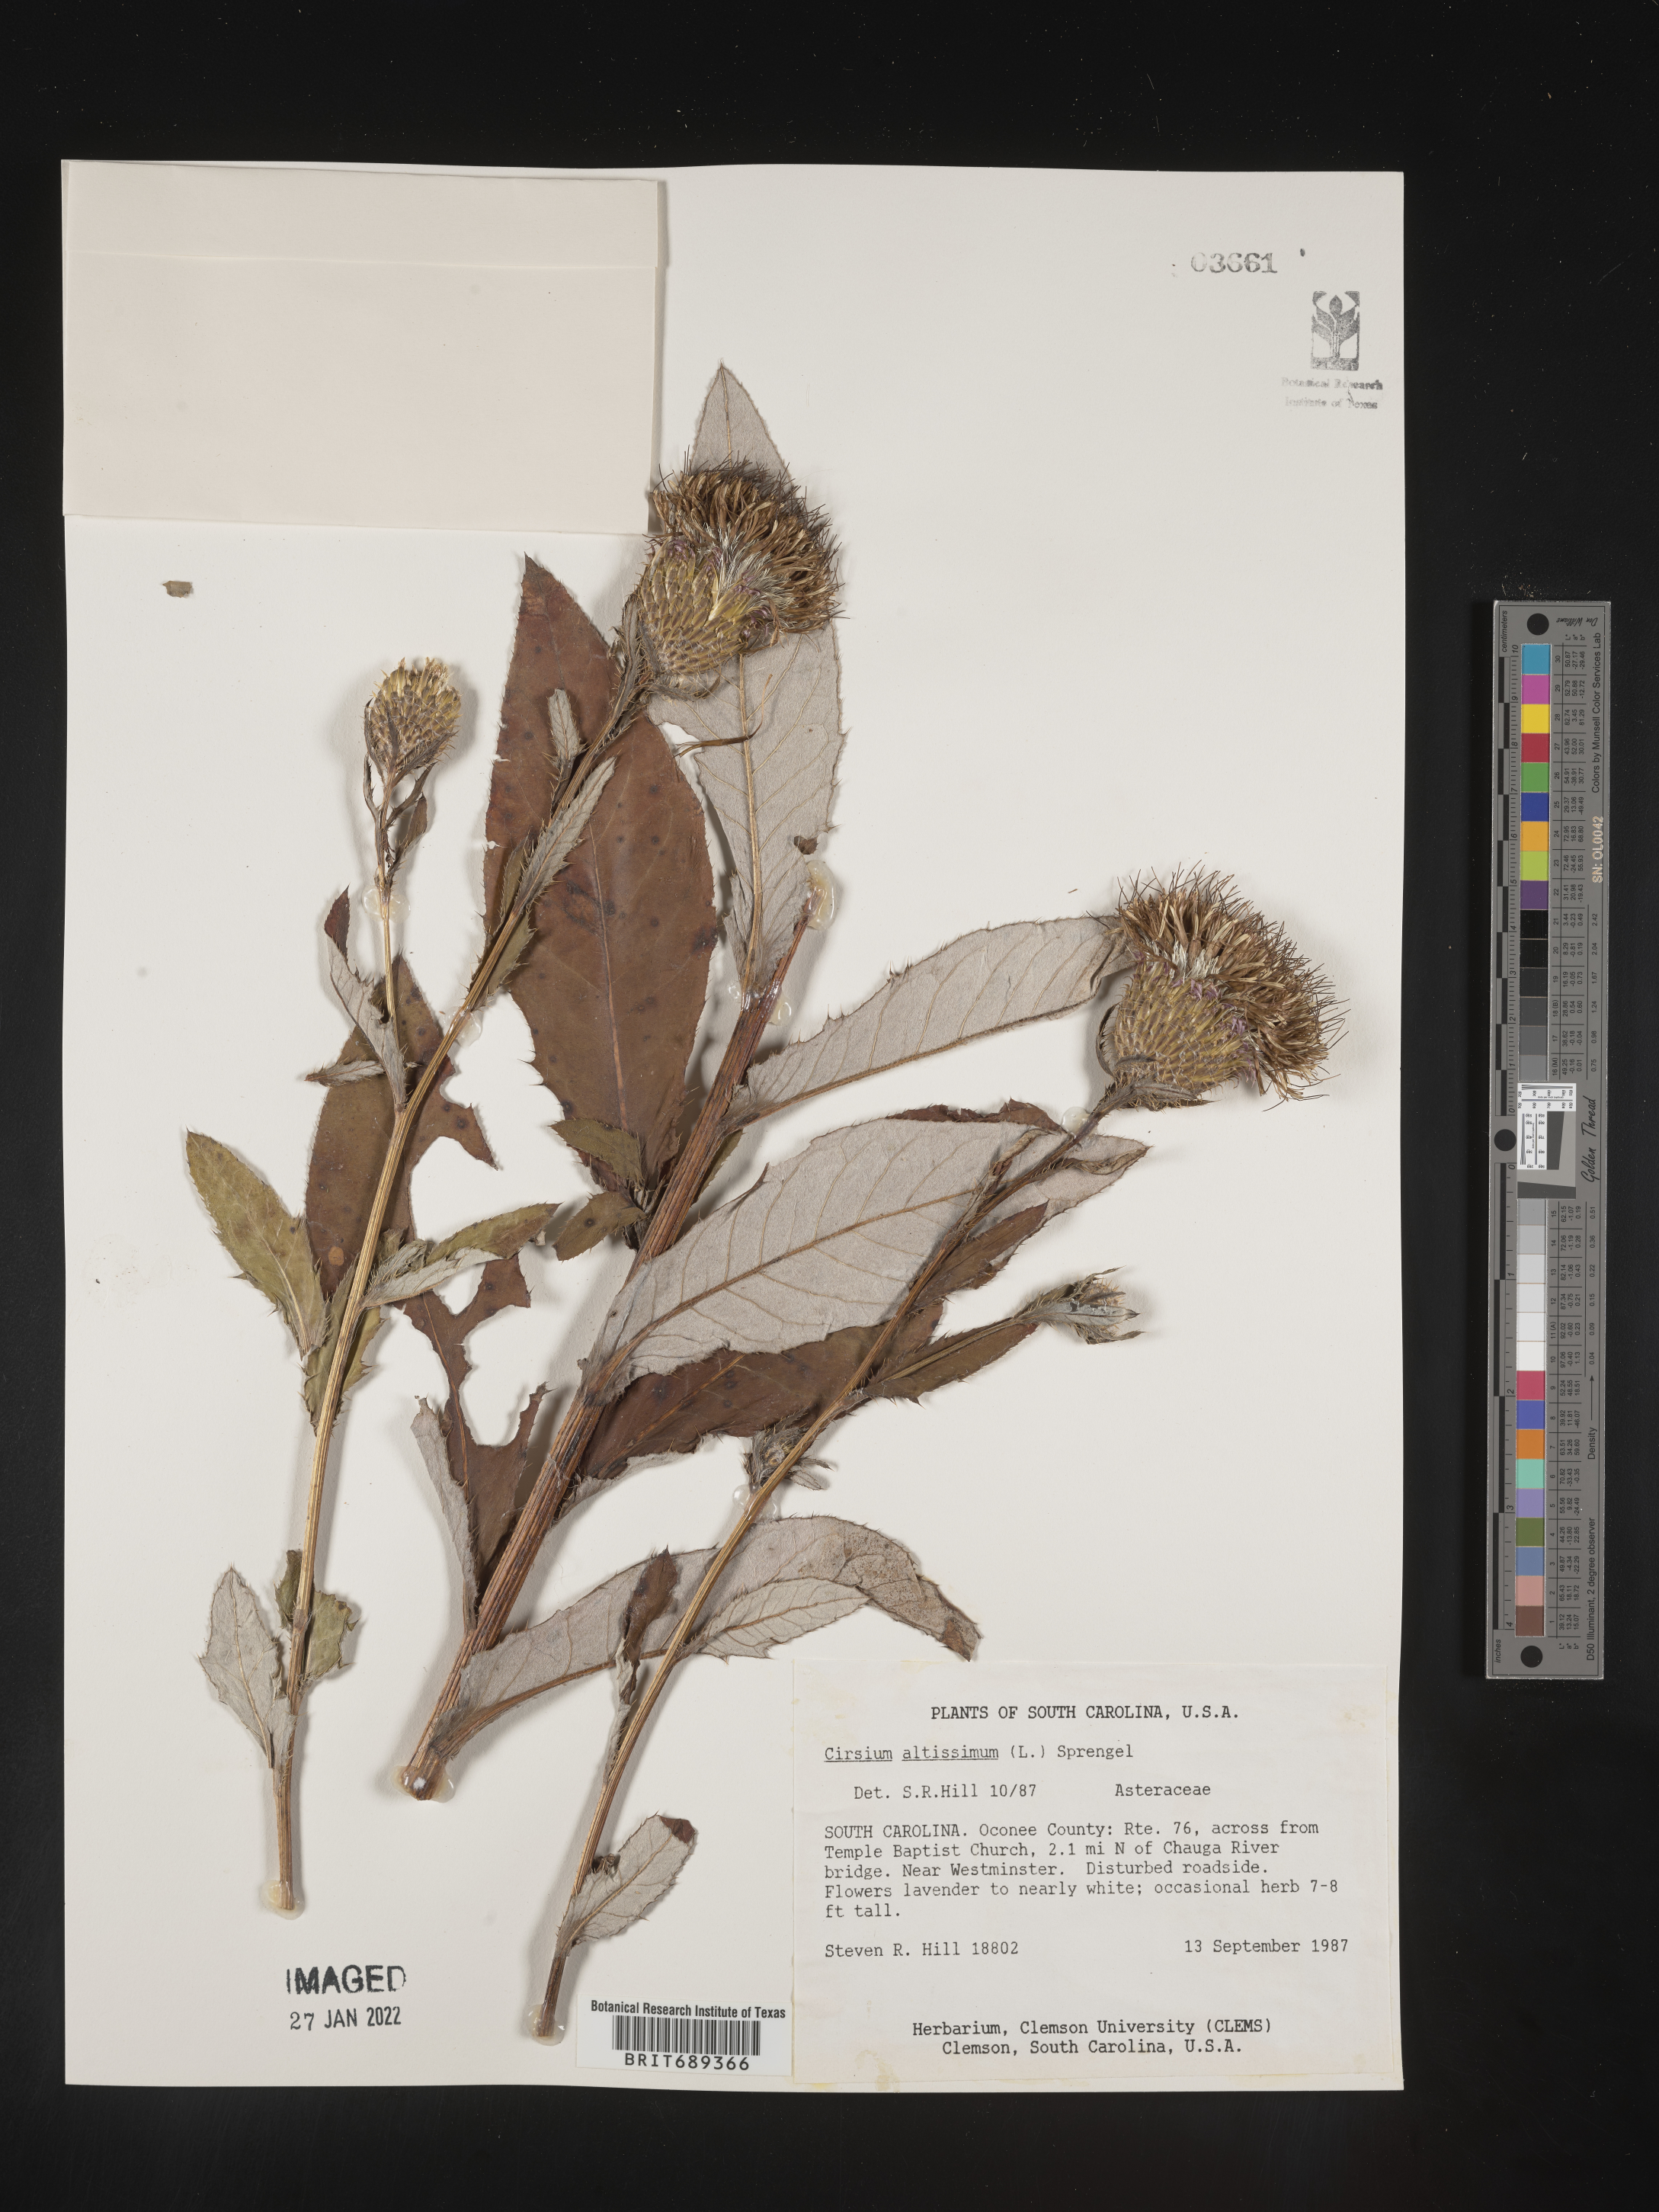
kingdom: Plantae
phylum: Tracheophyta
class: Magnoliopsida
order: Asterales
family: Asteraceae
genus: Cirsium
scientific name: Cirsium altissimum
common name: Roadside thistle
